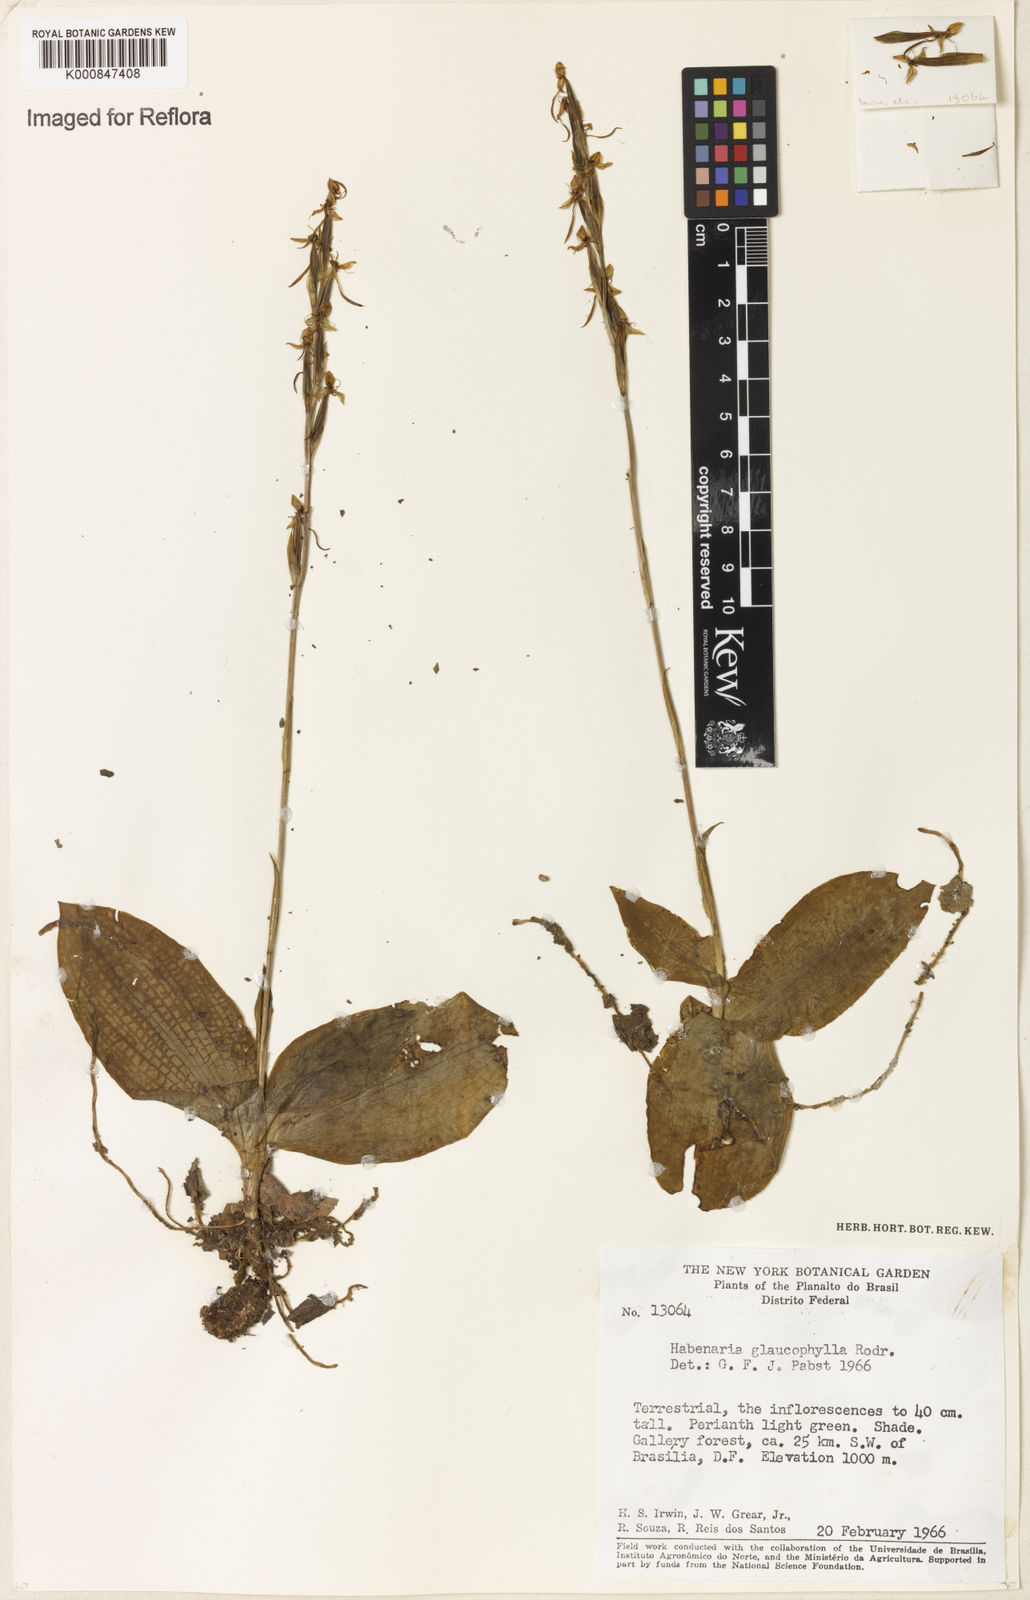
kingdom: Plantae
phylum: Tracheophyta
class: Liliopsida
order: Asparagales
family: Orchidaceae
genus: Habenaria
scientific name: Habenaria glaucophylla
